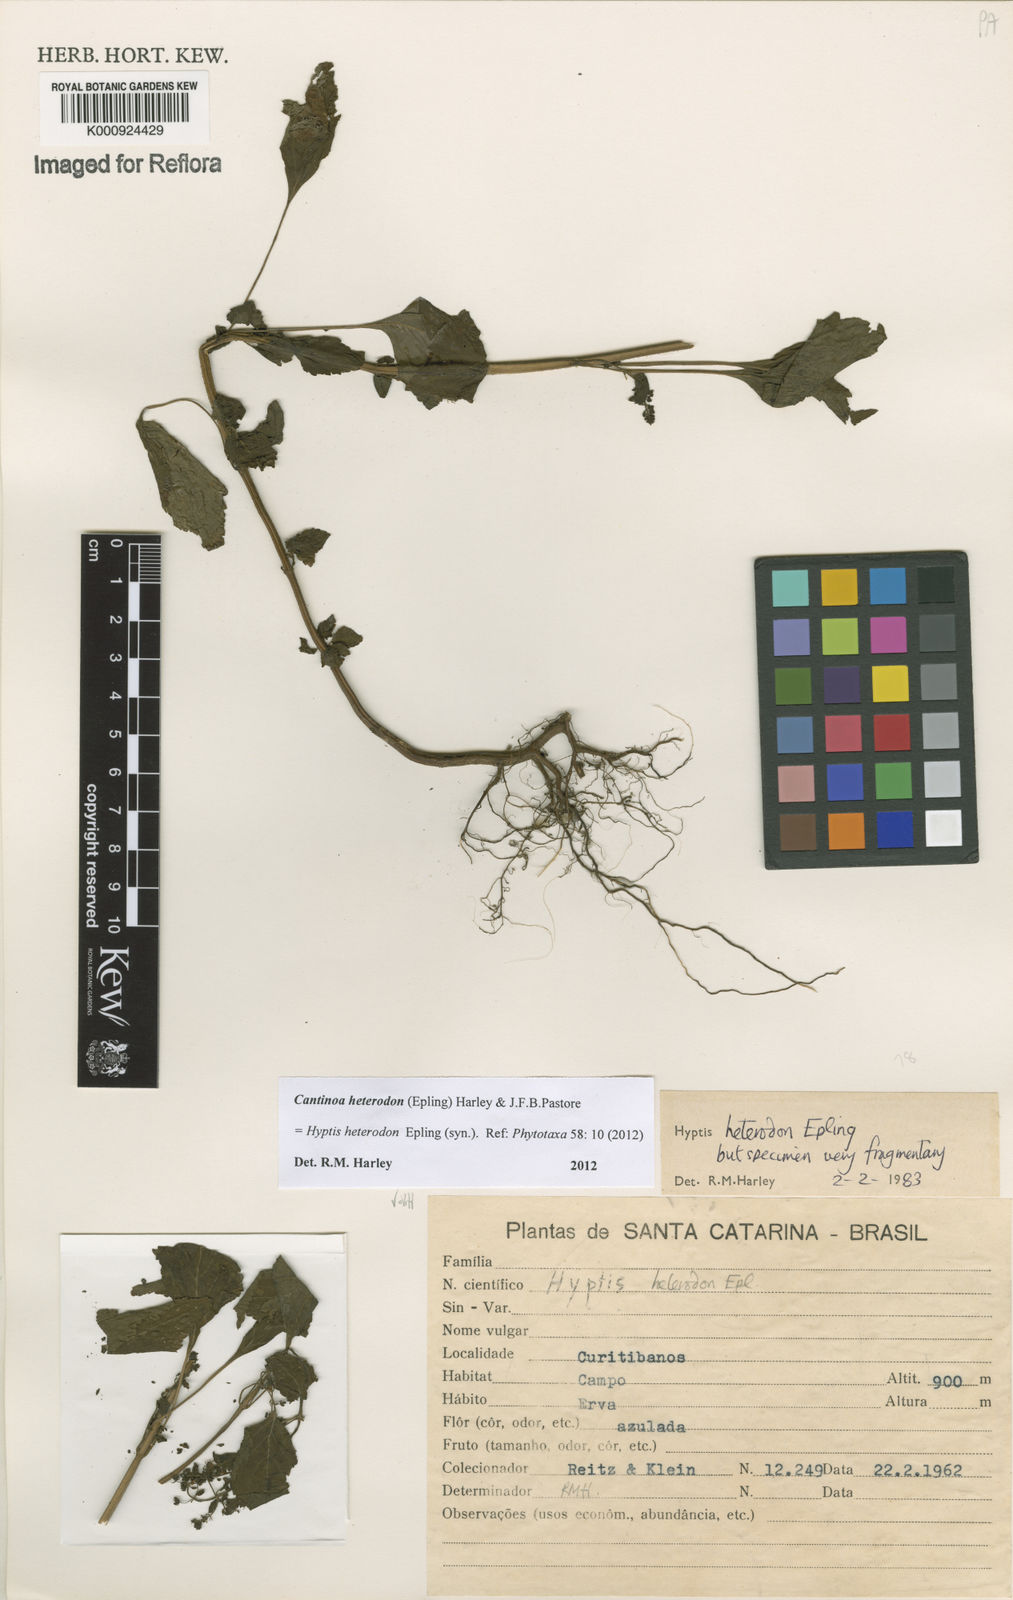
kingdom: Plantae
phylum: Tracheophyta
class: Magnoliopsida
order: Lamiales
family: Lamiaceae
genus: Cantinoa
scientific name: Cantinoa heterodon
